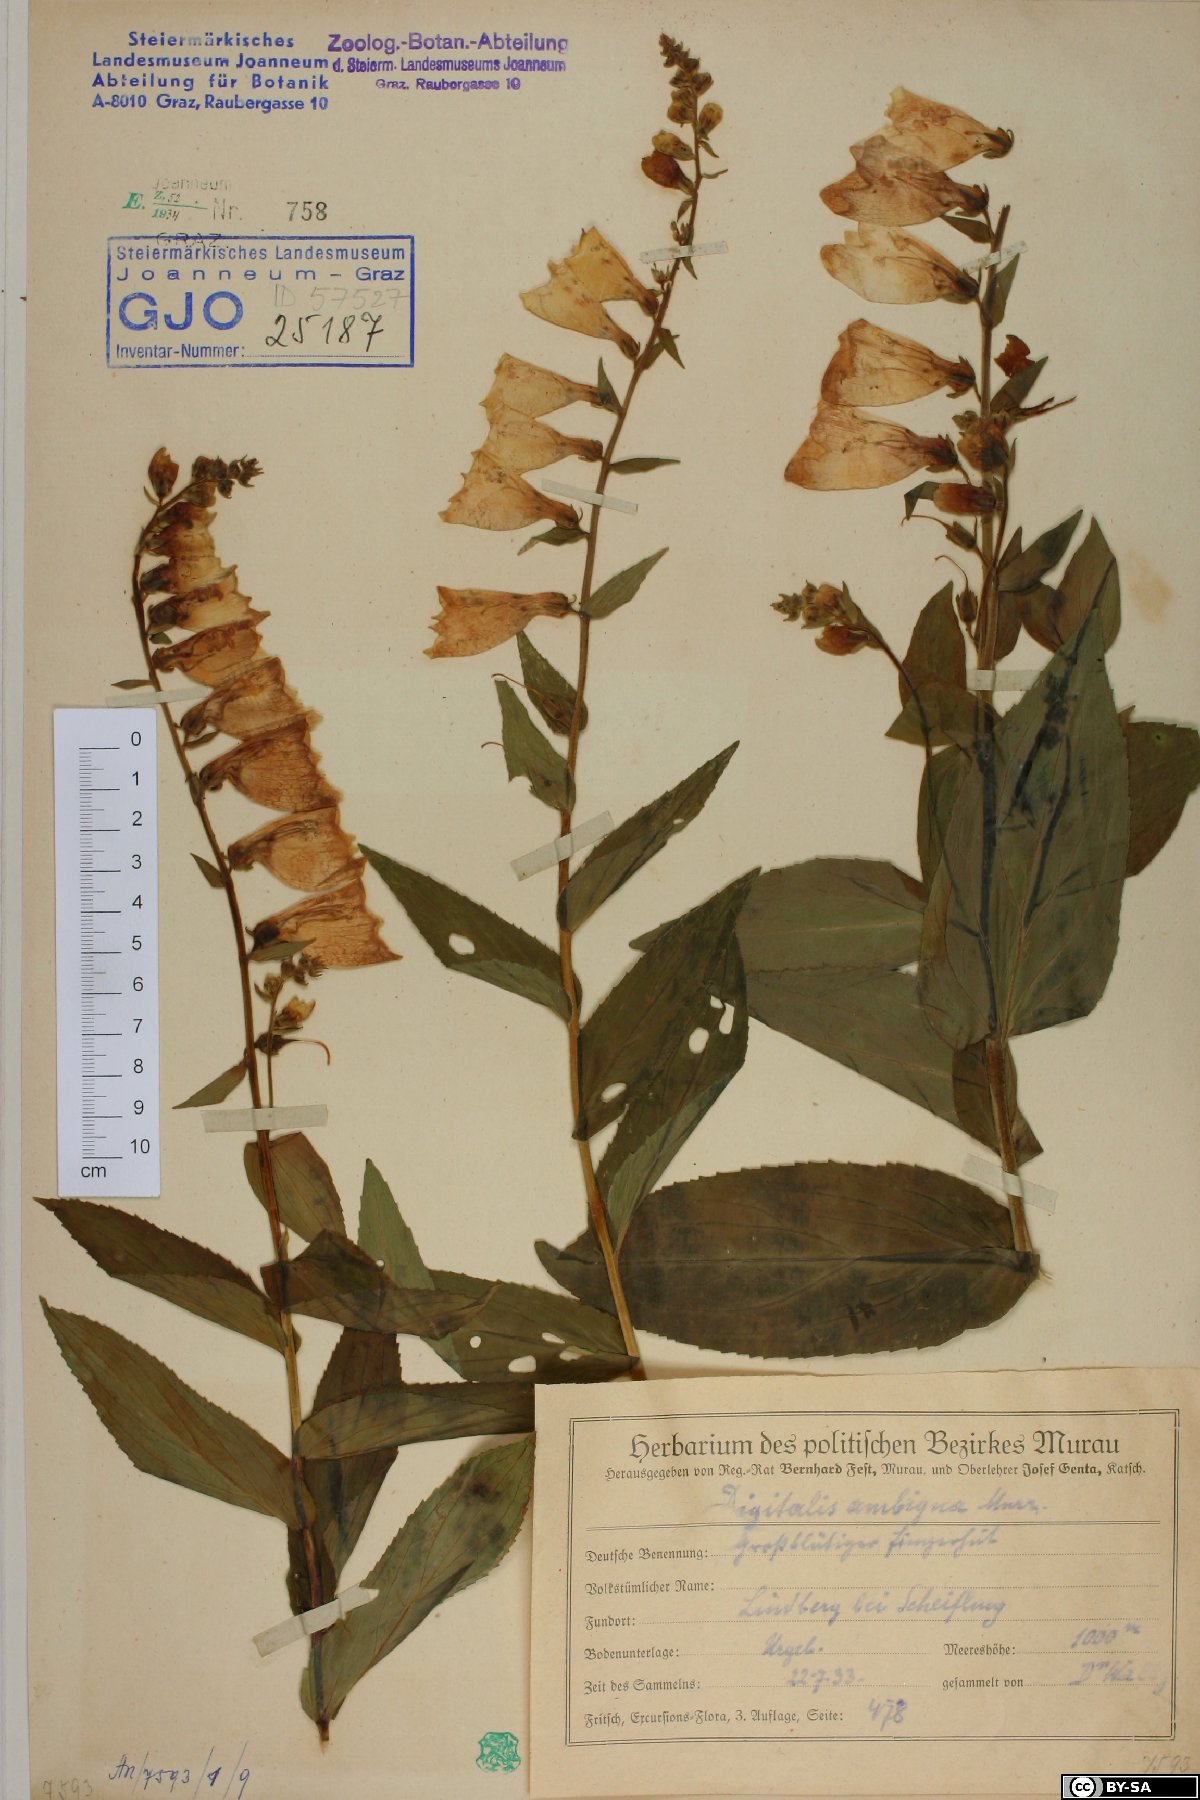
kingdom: Plantae
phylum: Tracheophyta
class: Magnoliopsida
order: Lamiales
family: Plantaginaceae
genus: Digitalis
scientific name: Digitalis grandiflora
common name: Yellow foxglove
